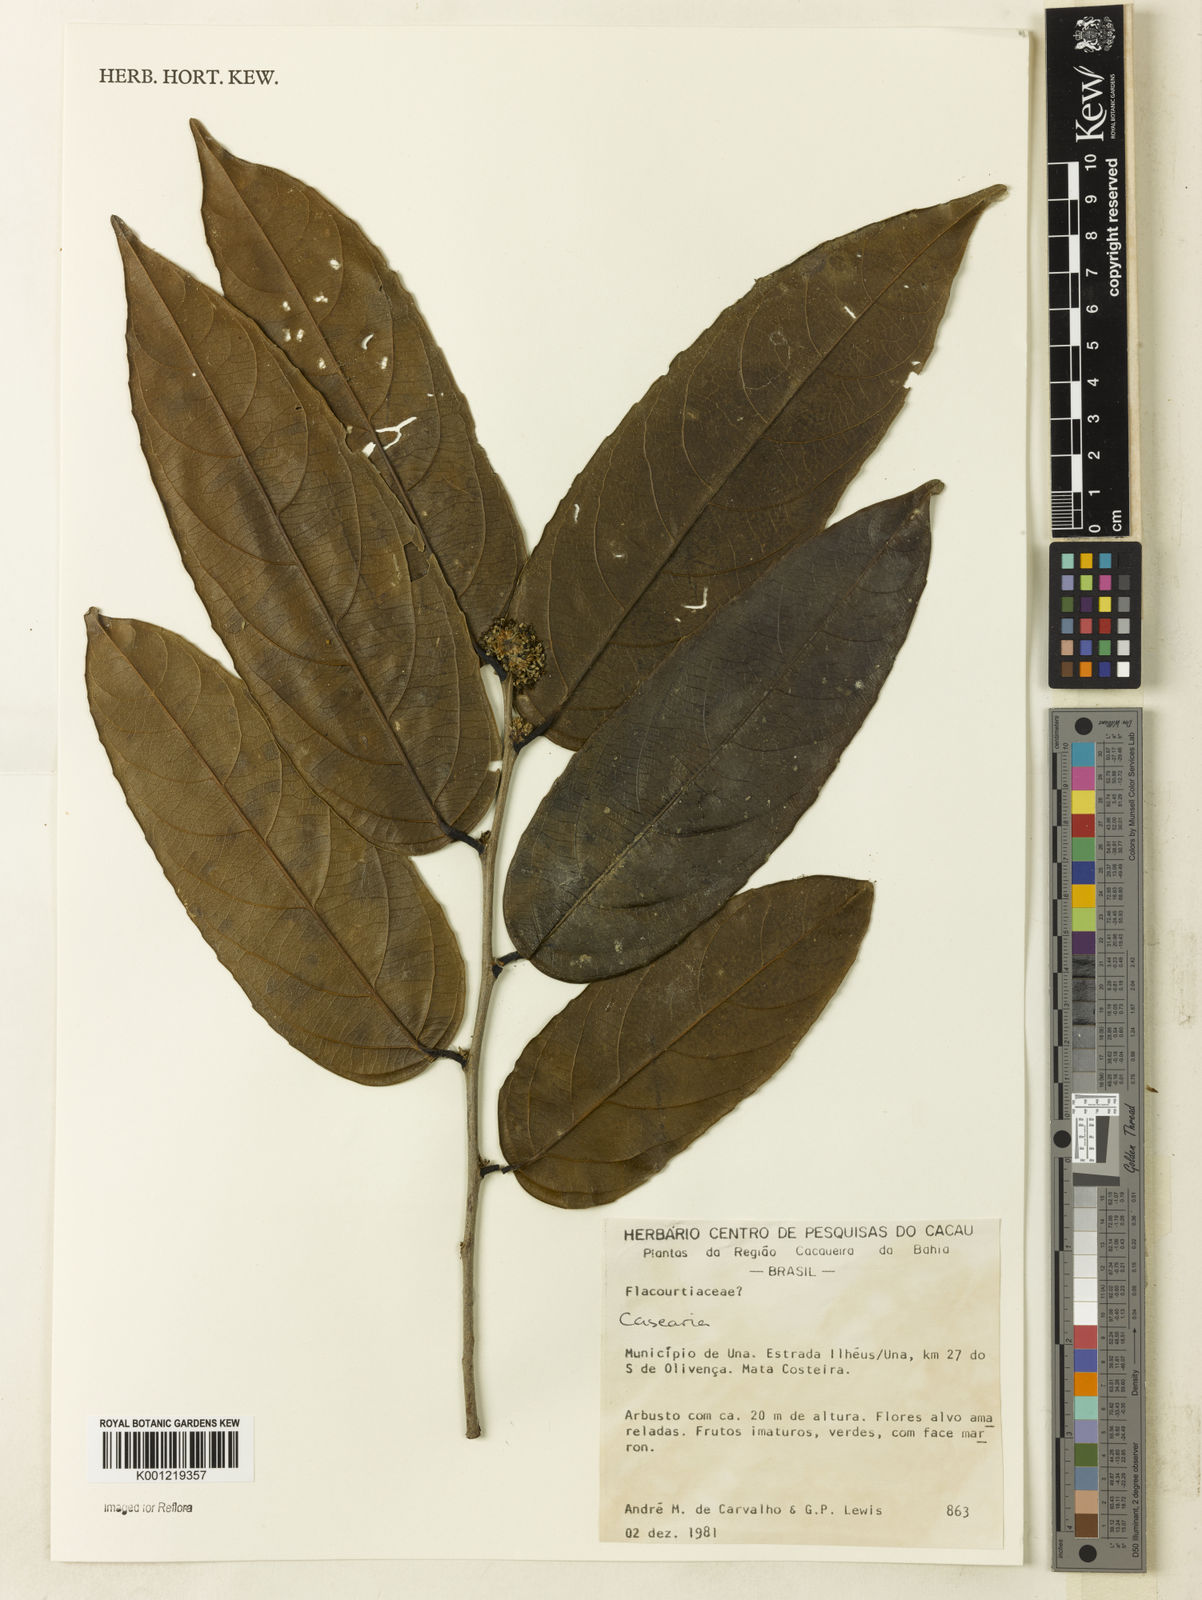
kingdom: Plantae
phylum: Tracheophyta
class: Magnoliopsida
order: Malpighiales
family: Salicaceae
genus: Casearia
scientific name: Casearia
